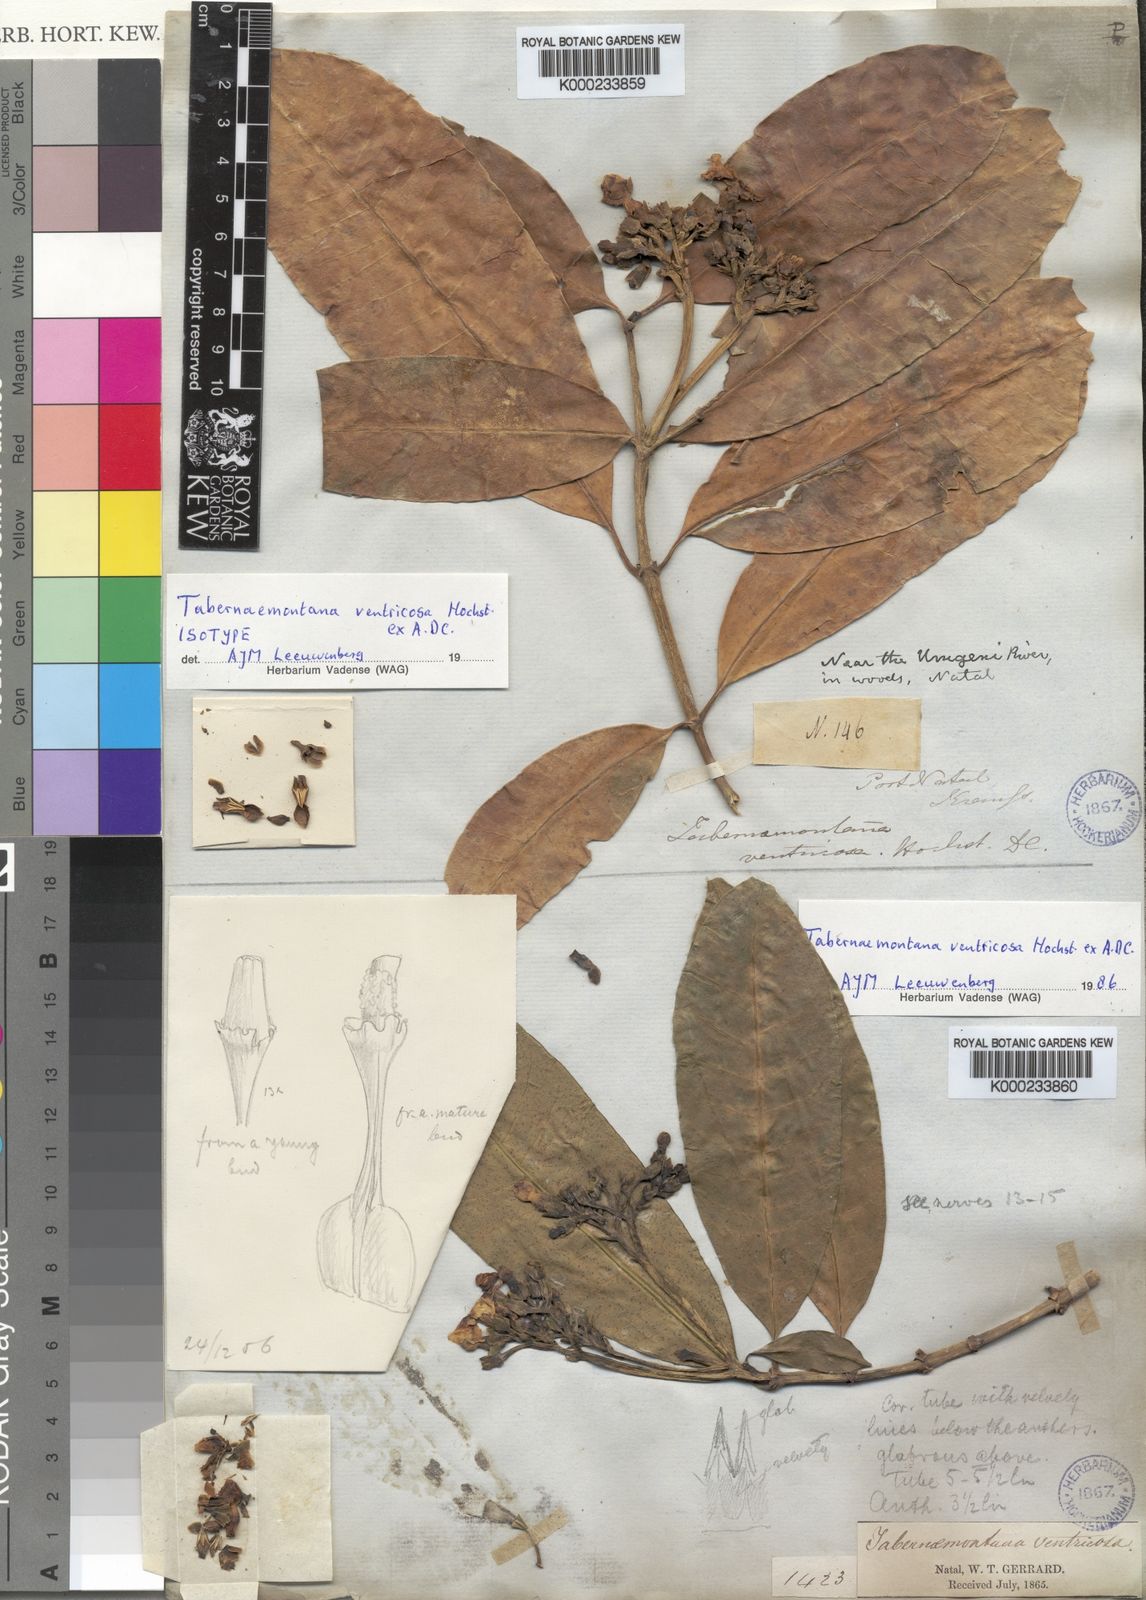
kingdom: Plantae
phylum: Tracheophyta
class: Magnoliopsida
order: Gentianales
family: Apocynaceae
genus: Tabernaemontana
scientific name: Tabernaemontana ventricosa
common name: Forest toad-tree
